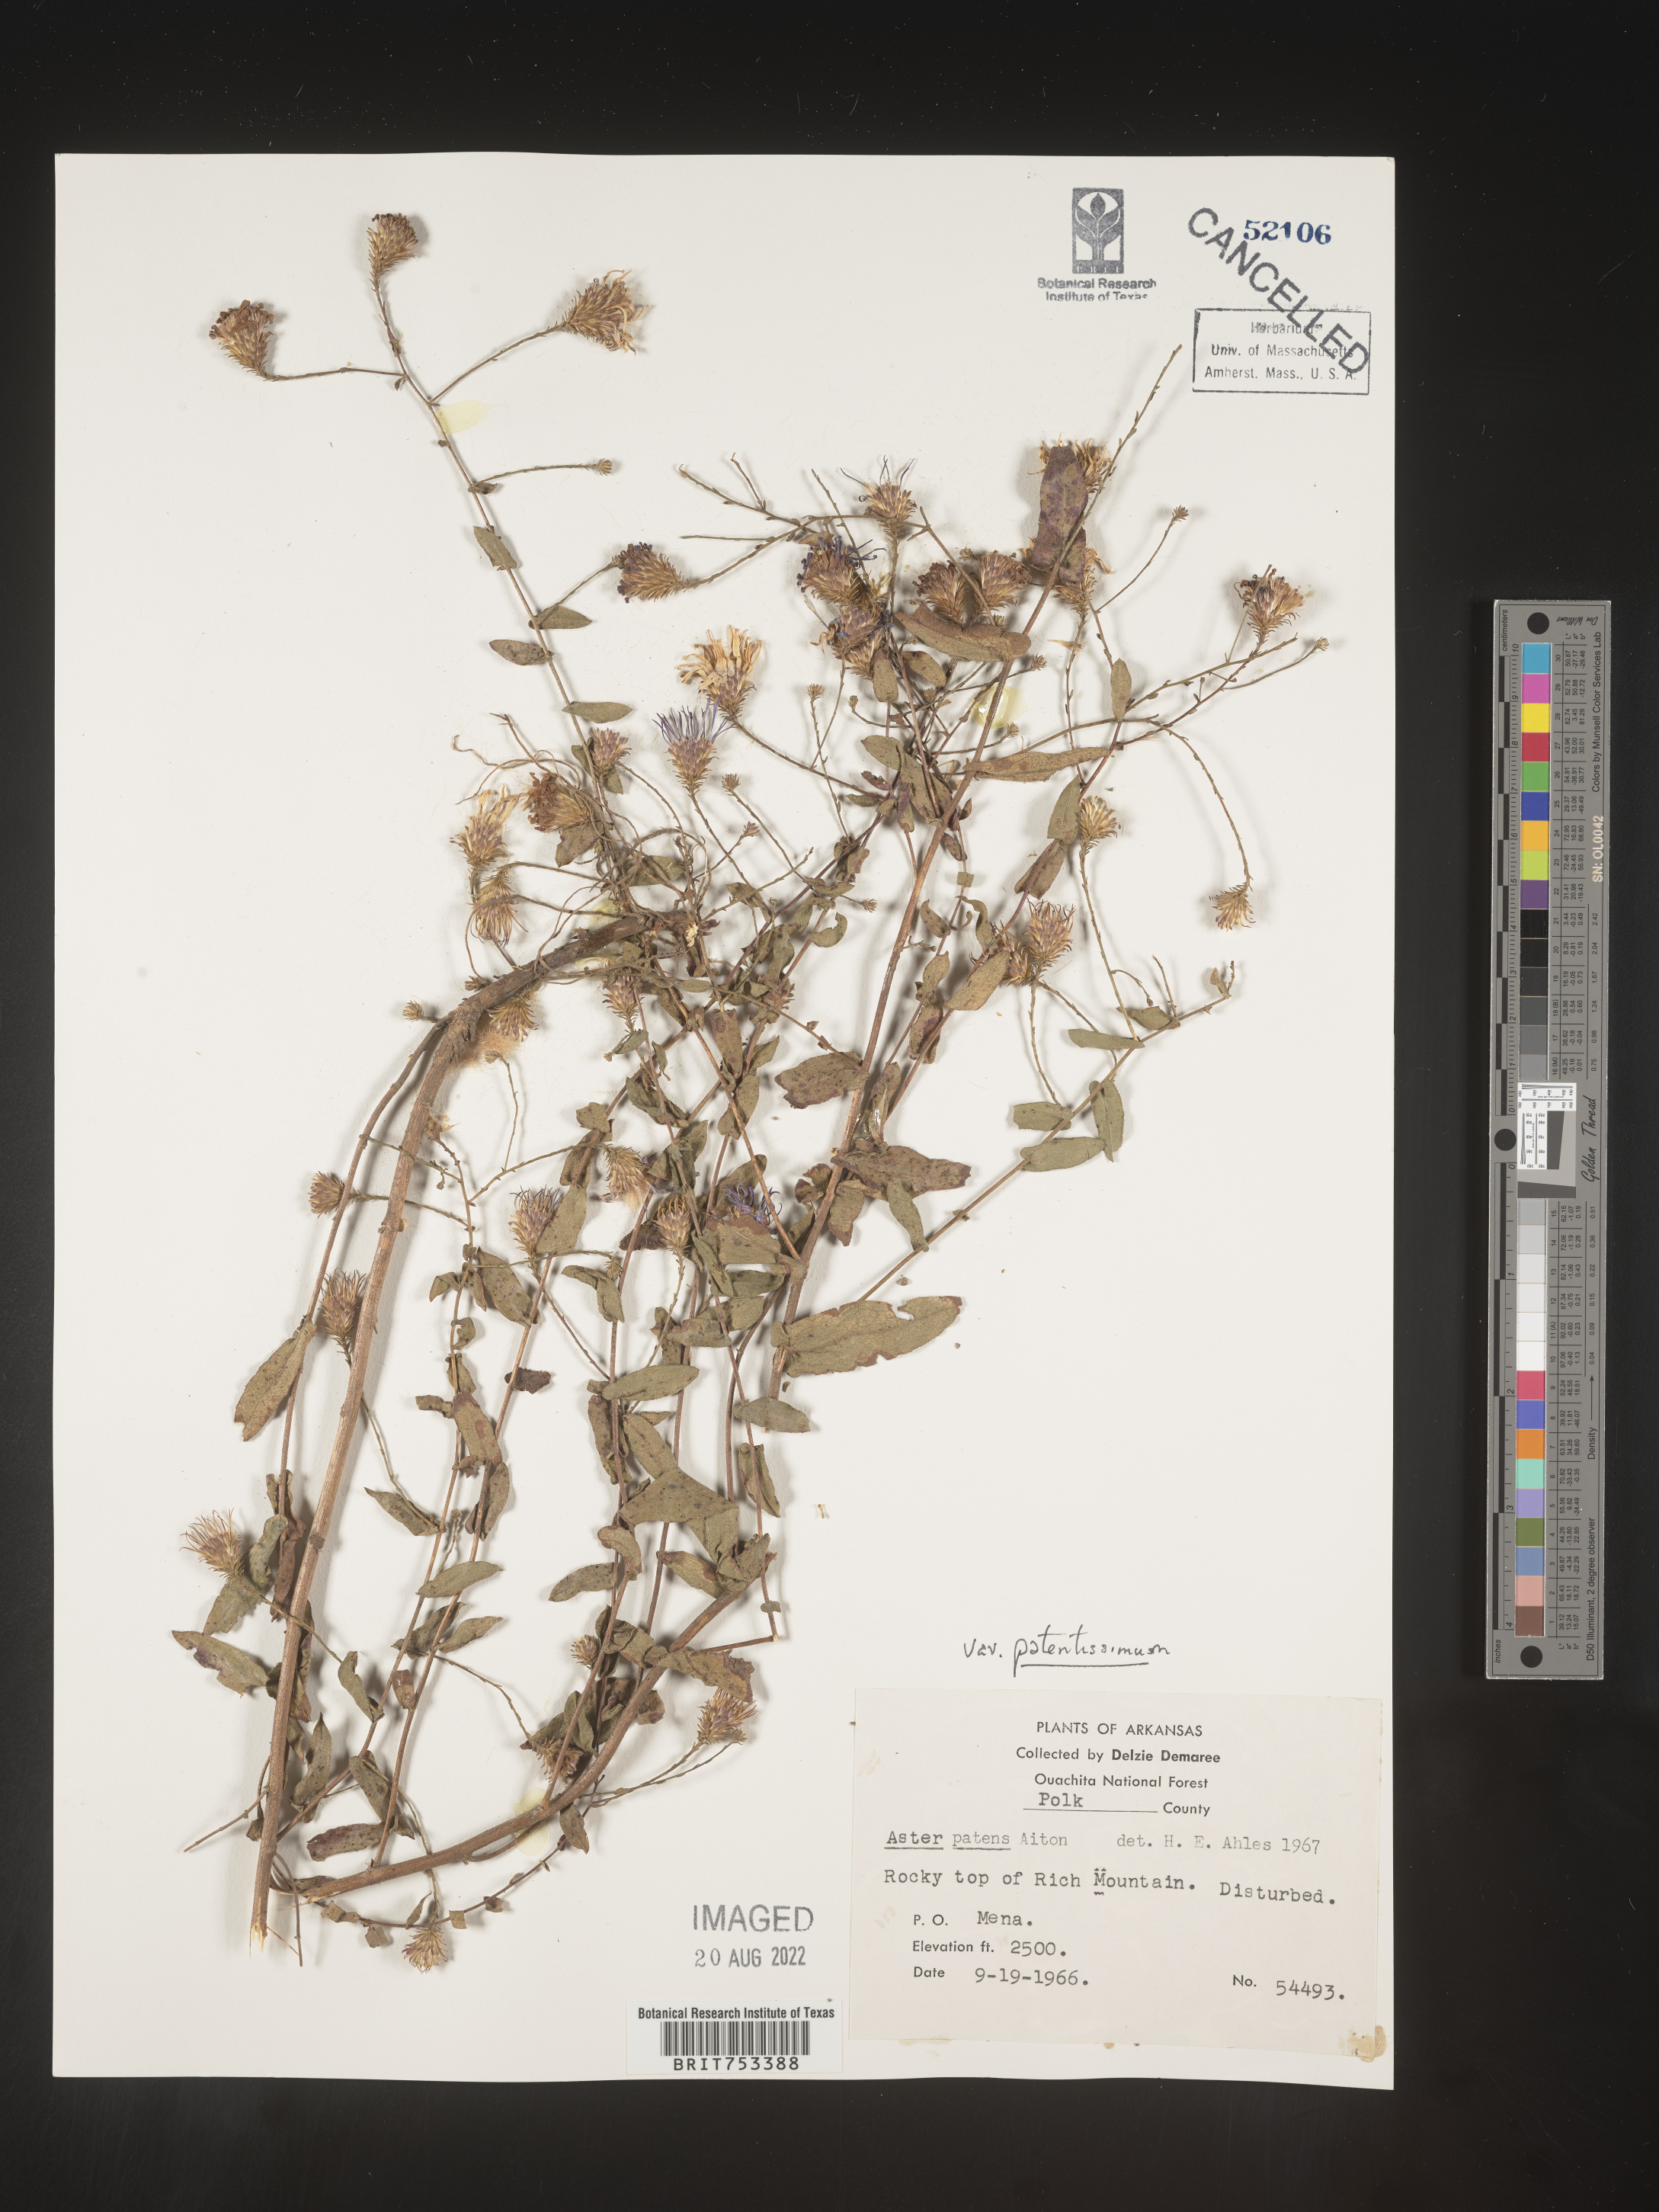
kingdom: Plantae
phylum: Tracheophyta
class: Magnoliopsida
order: Asterales
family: Asteraceae
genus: Symphyotrichum
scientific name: Symphyotrichum patens
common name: Late purple aster
